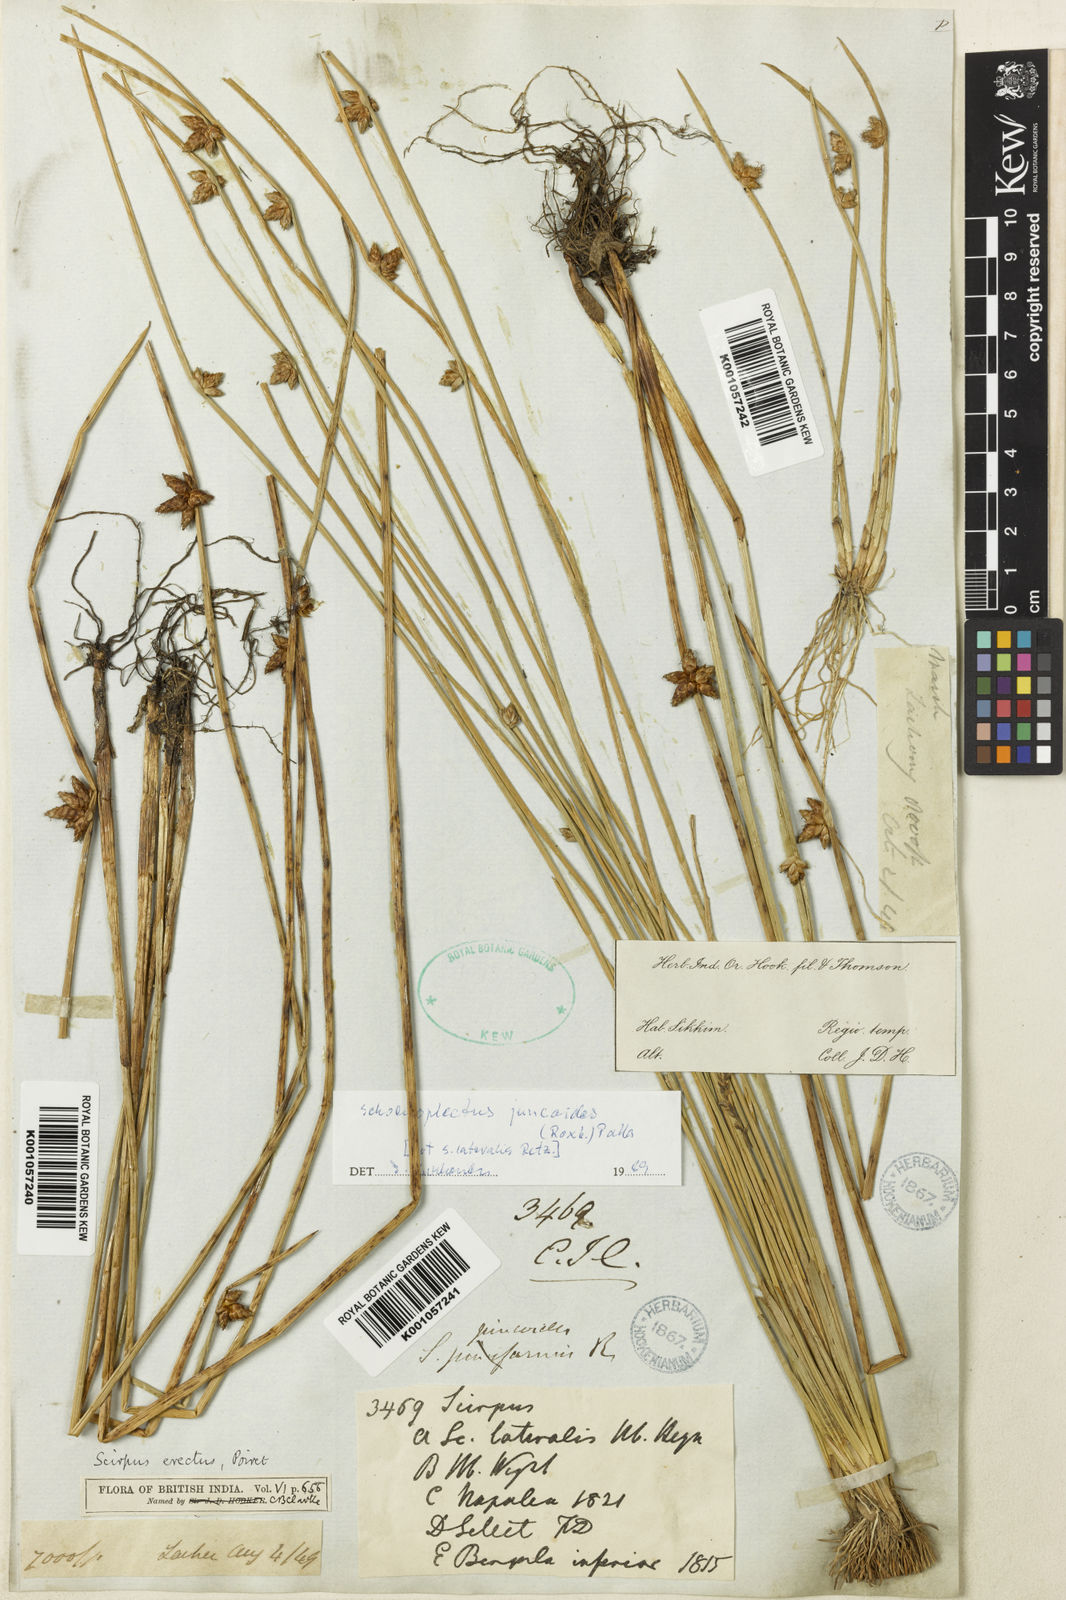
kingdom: Plantae
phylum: Tracheophyta
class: Liliopsida
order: Poales
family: Cyperaceae
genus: Schoenoplectiella
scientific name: Schoenoplectiella juncoides
